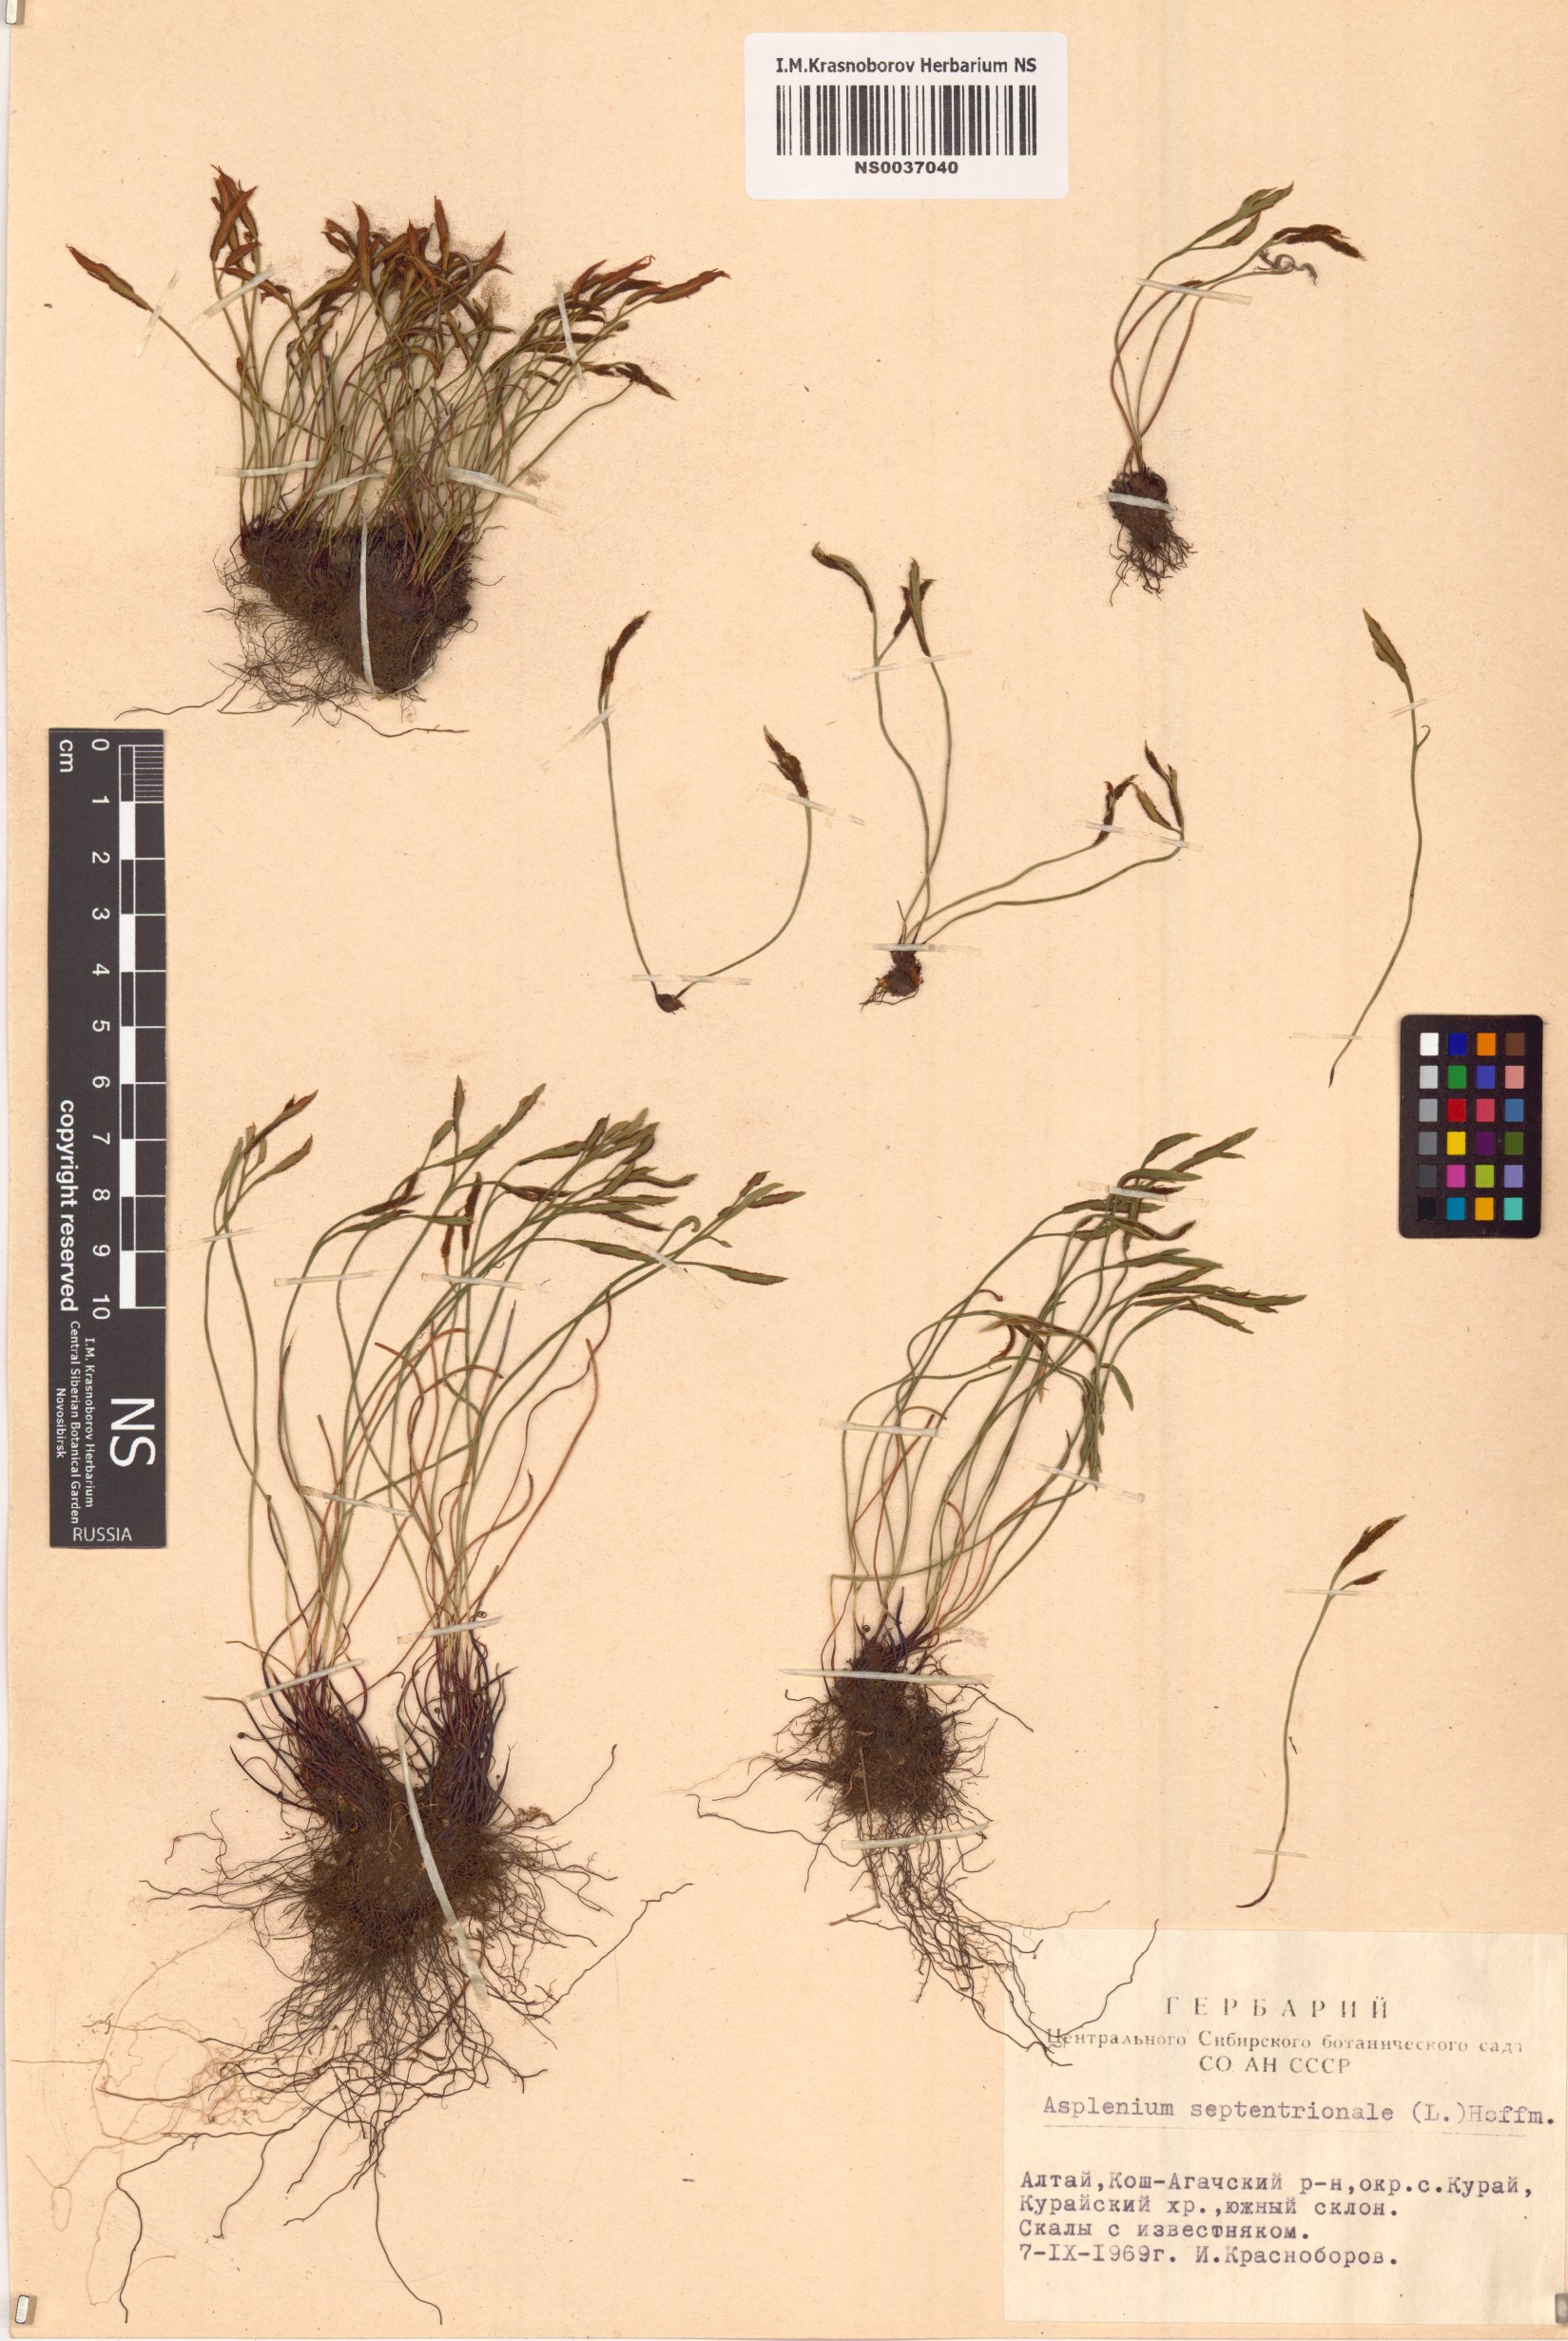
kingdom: Plantae
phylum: Tracheophyta
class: Polypodiopsida
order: Polypodiales
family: Aspleniaceae
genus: Asplenium
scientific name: Asplenium septentrionale
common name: Forked spleenwort
